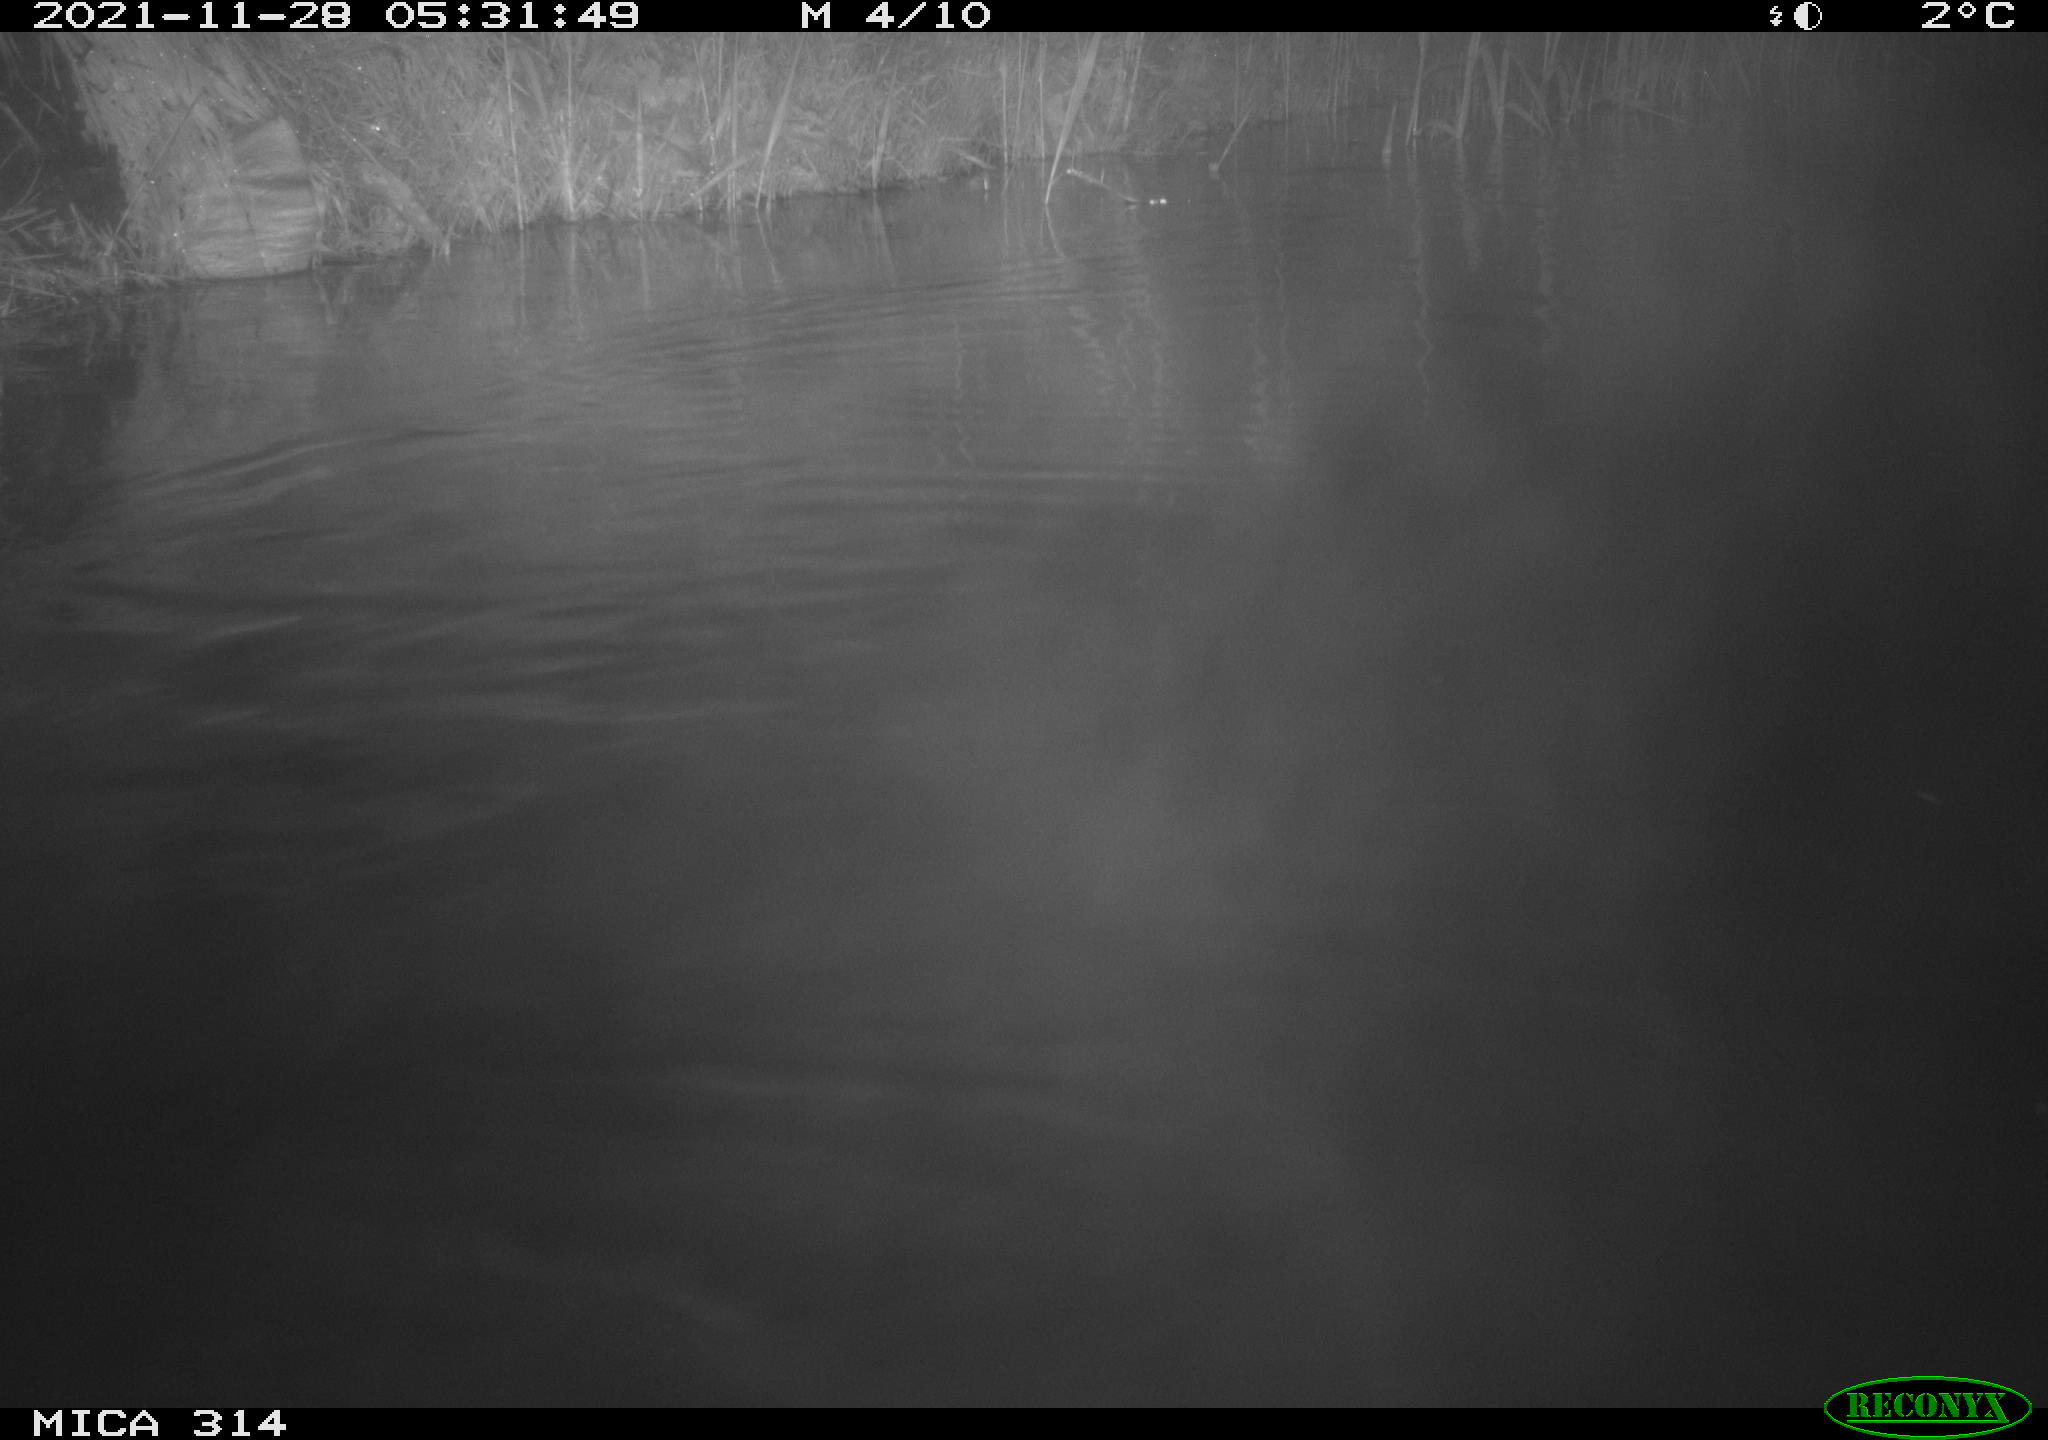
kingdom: Animalia
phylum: Chordata
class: Mammalia
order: Rodentia
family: Muridae
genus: Rattus
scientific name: Rattus norvegicus
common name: Brown rat
